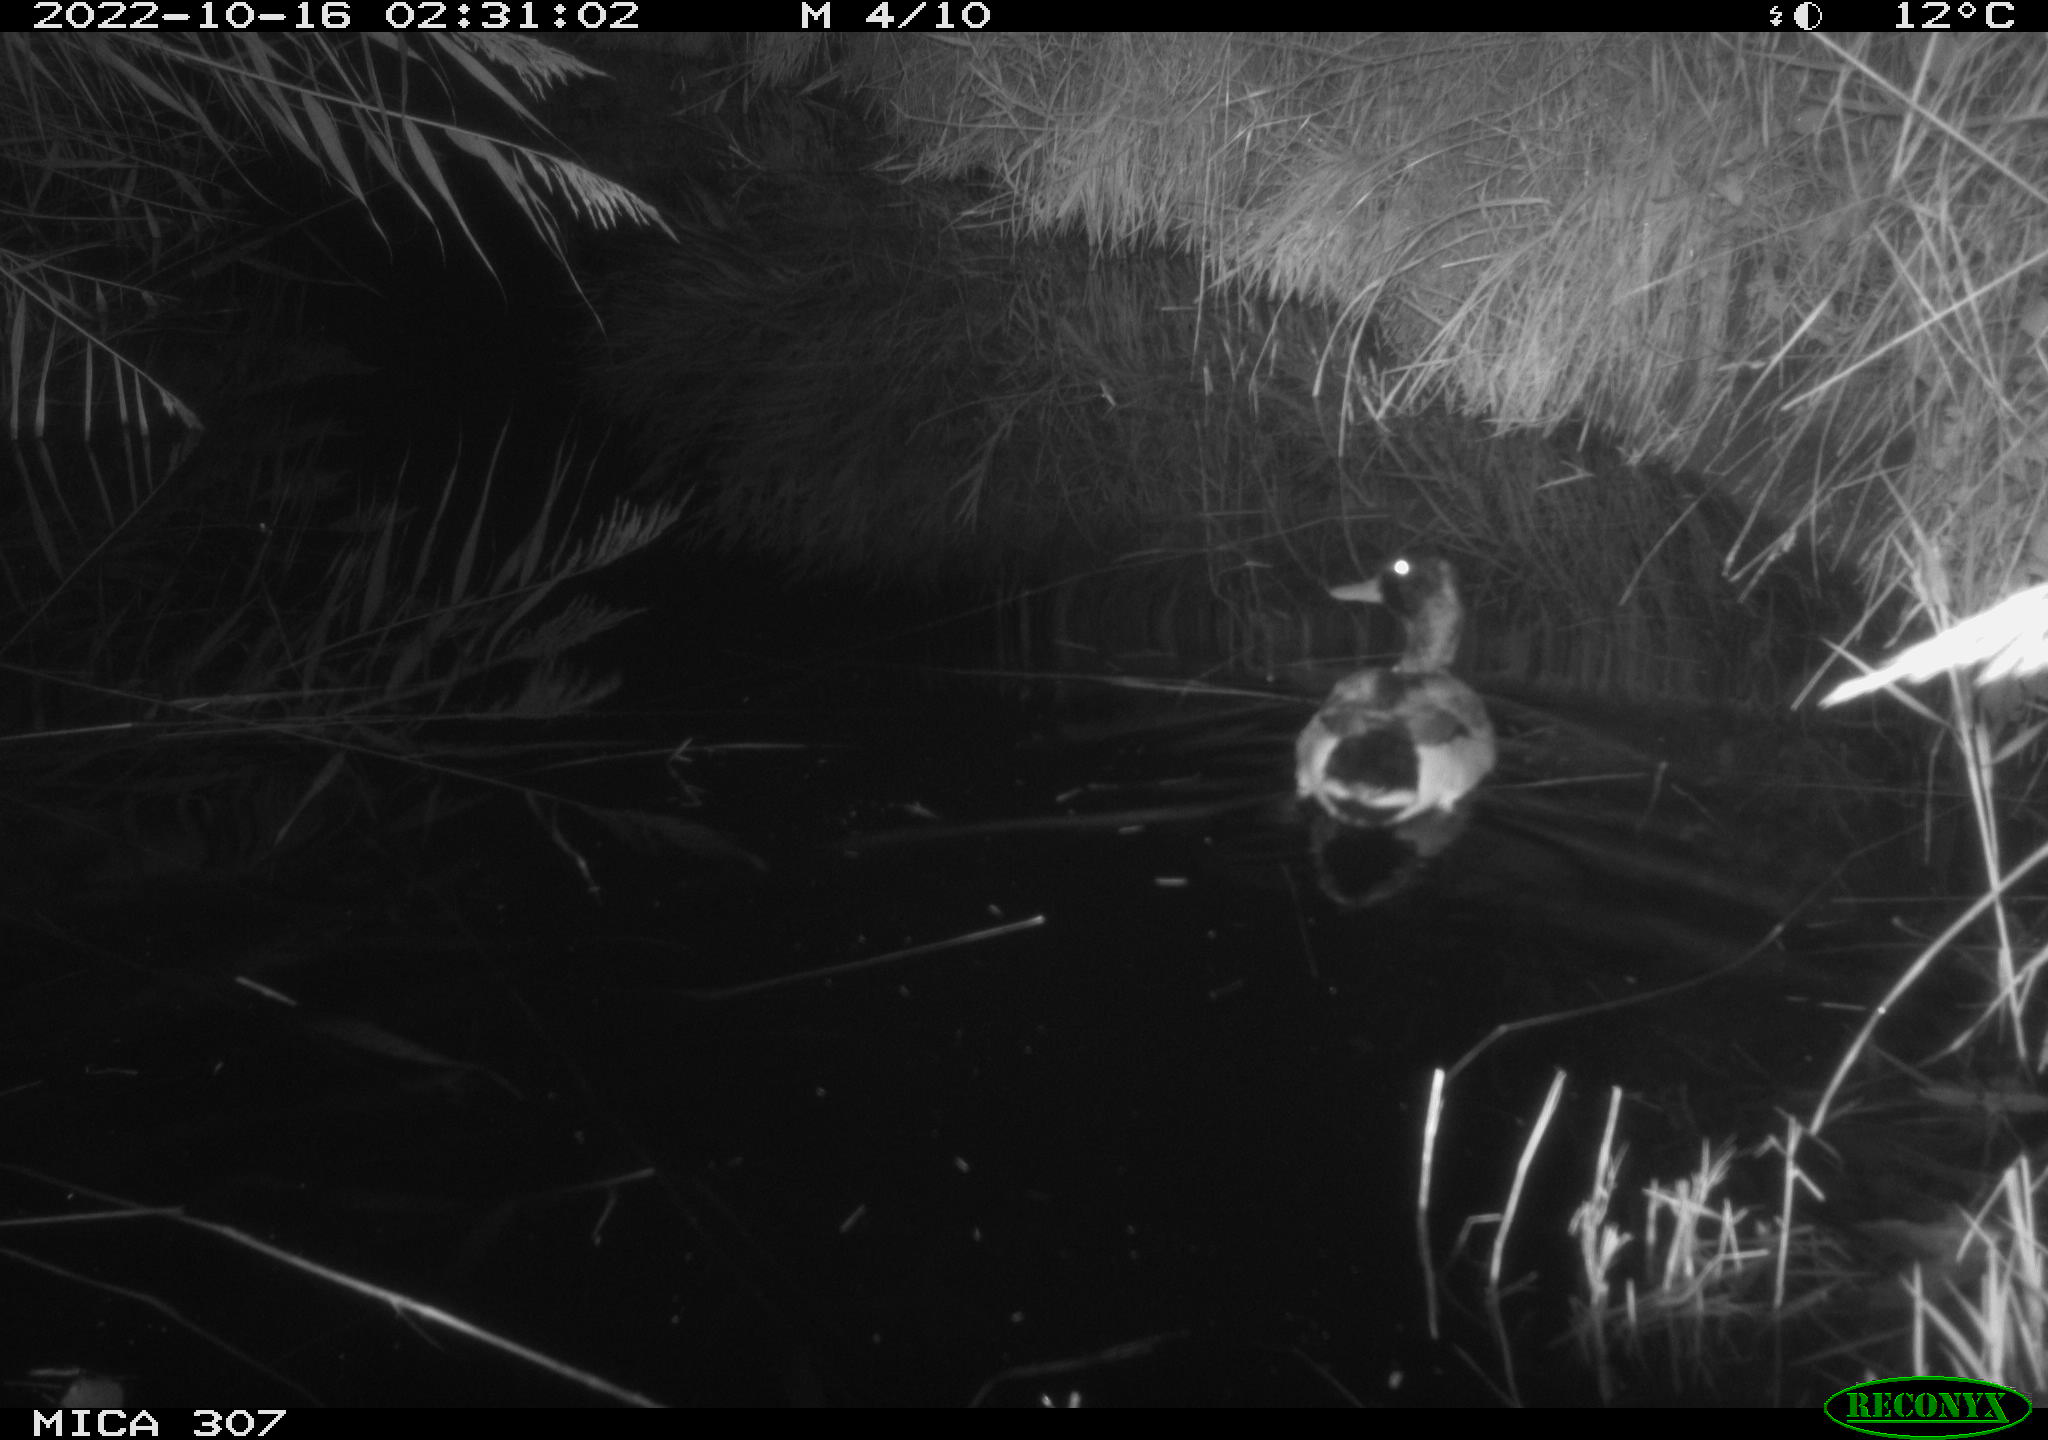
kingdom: Animalia
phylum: Chordata
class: Aves
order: Anseriformes
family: Anatidae
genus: Anas
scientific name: Anas
